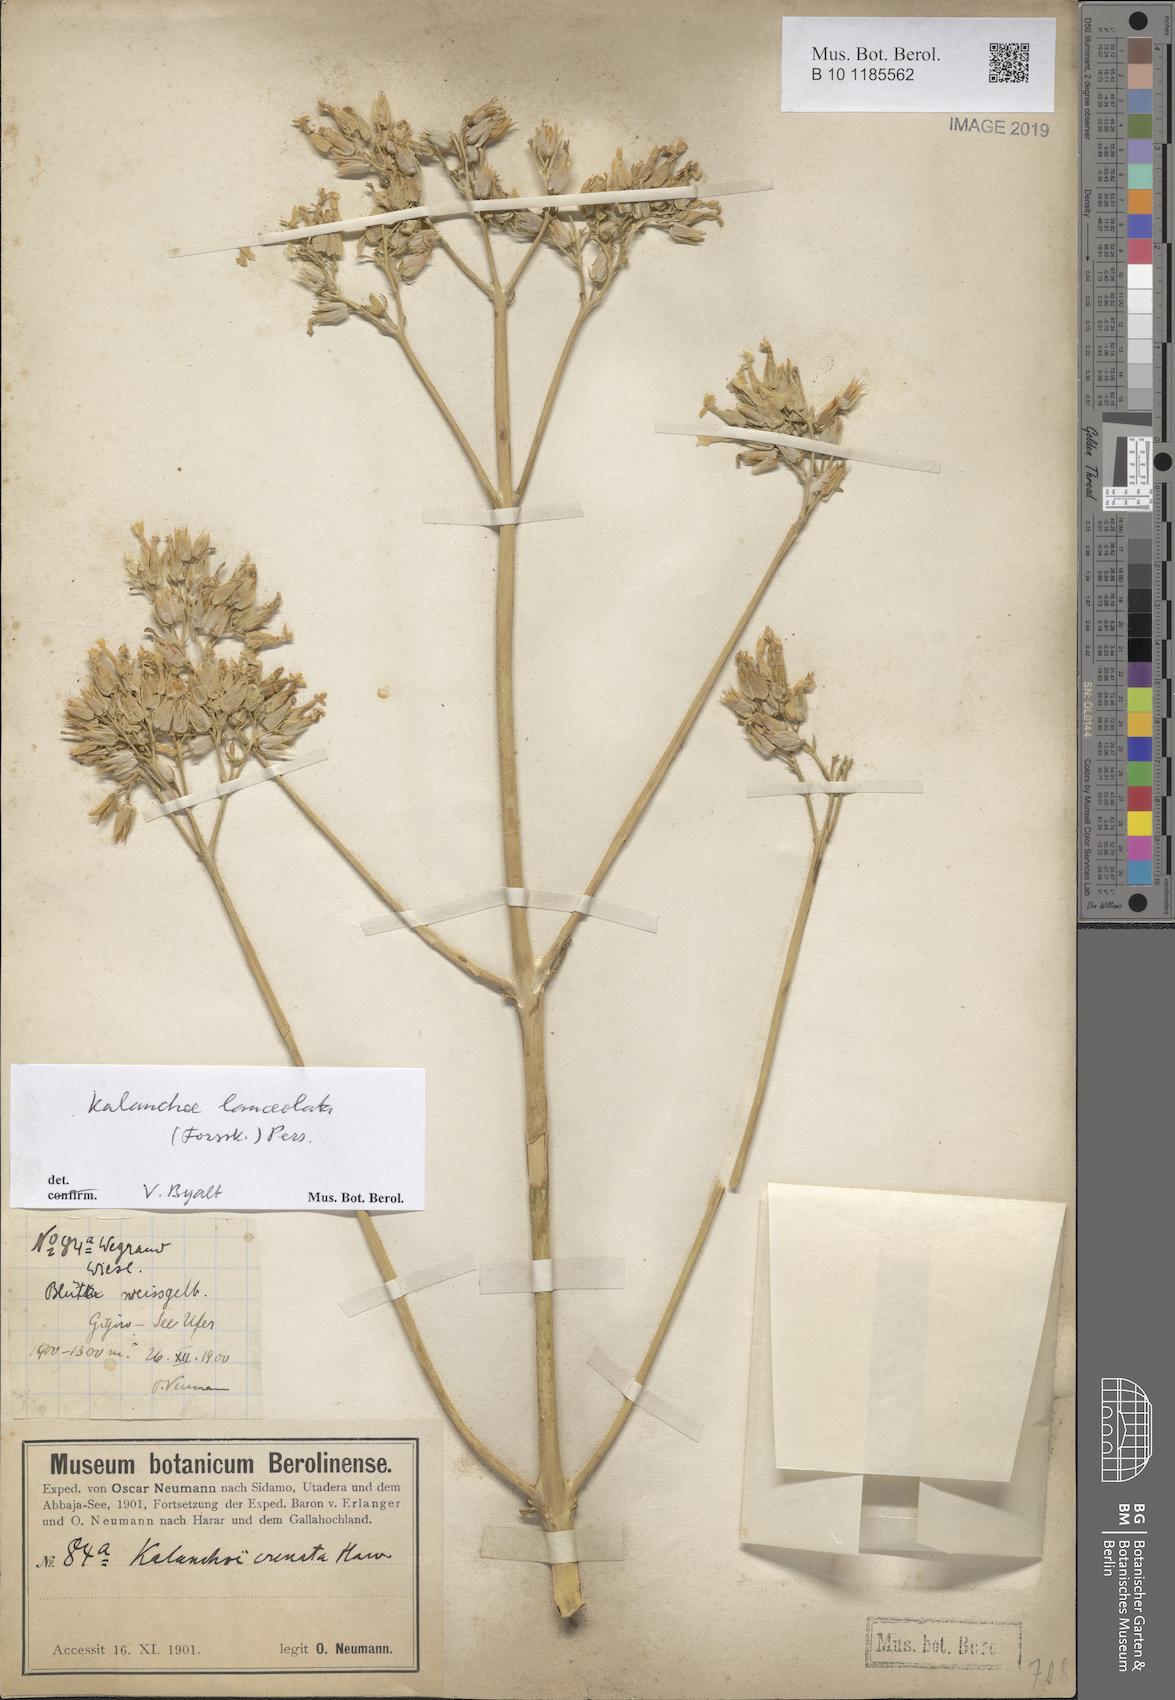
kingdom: Plantae
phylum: Tracheophyta
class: Magnoliopsida
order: Saxifragales
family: Crassulaceae
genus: Kalanchoe
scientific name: Kalanchoe lanceolata
